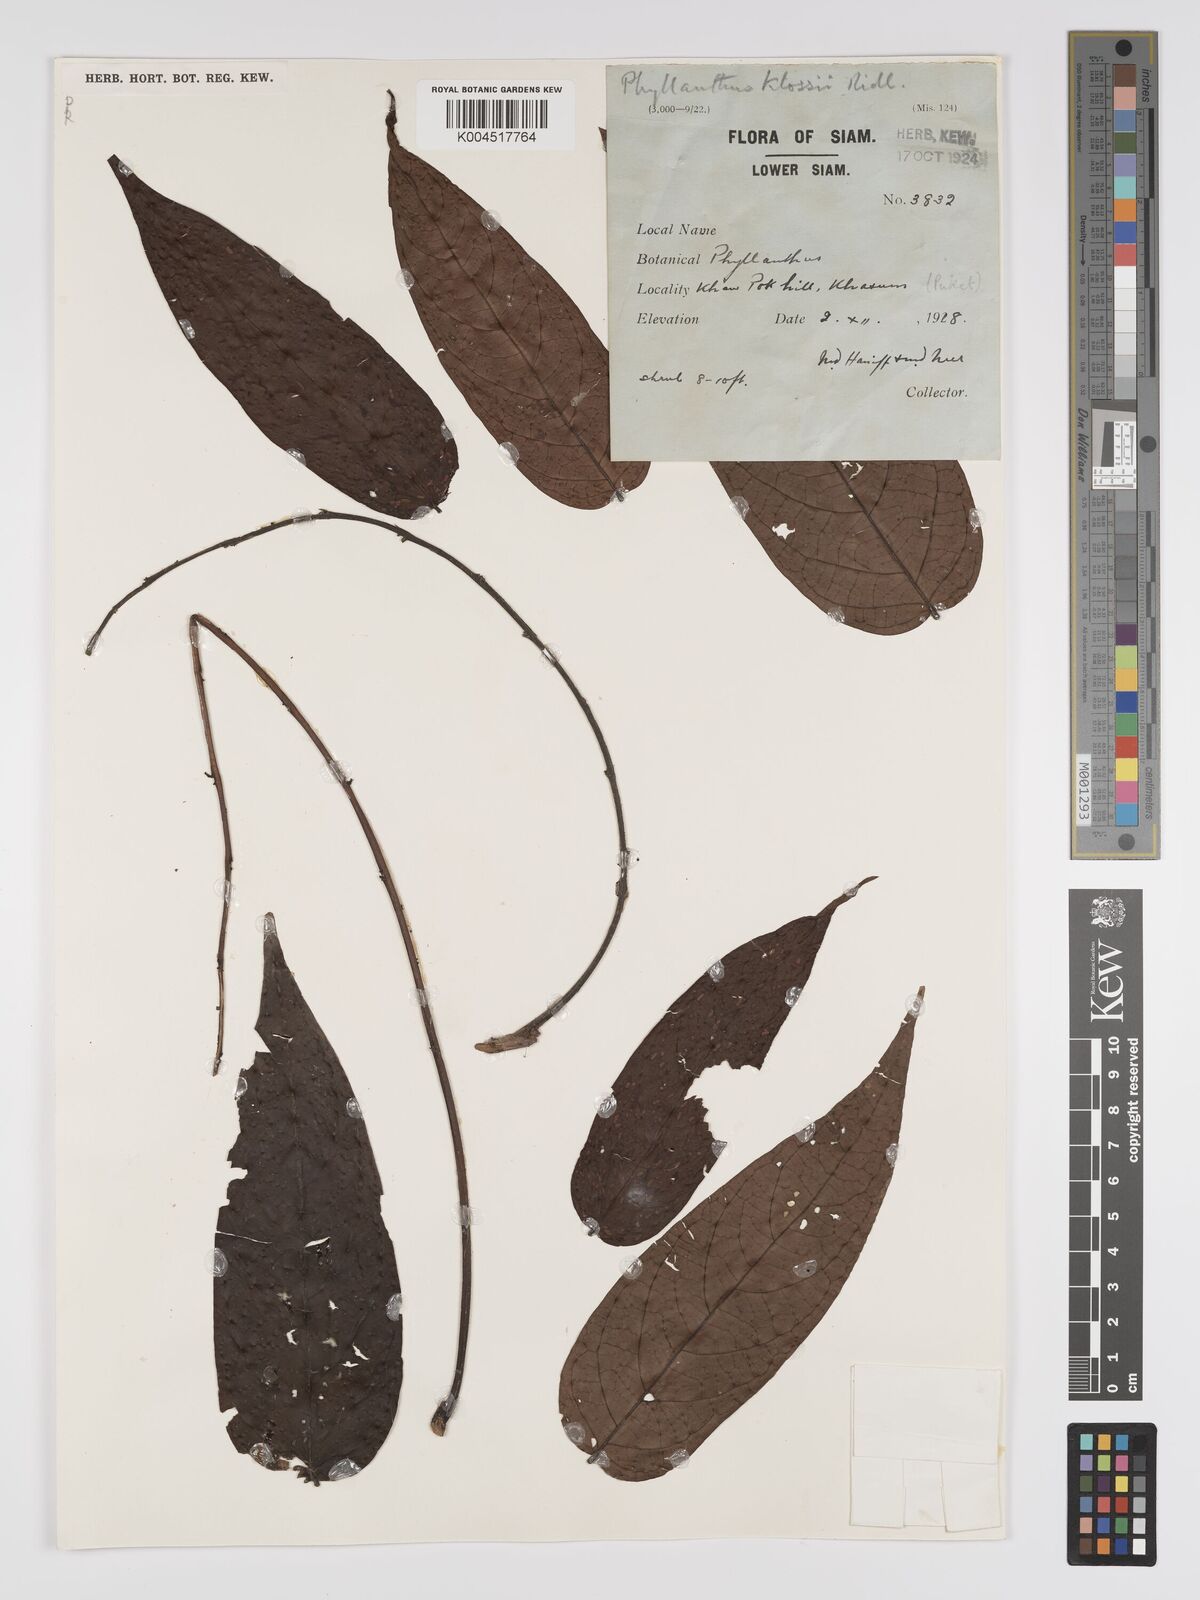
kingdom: Plantae
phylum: Tracheophyta
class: Magnoliopsida
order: Malpighiales
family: Phyllanthaceae
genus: Phyllanthus
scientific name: Phyllanthus pachyphyllus
